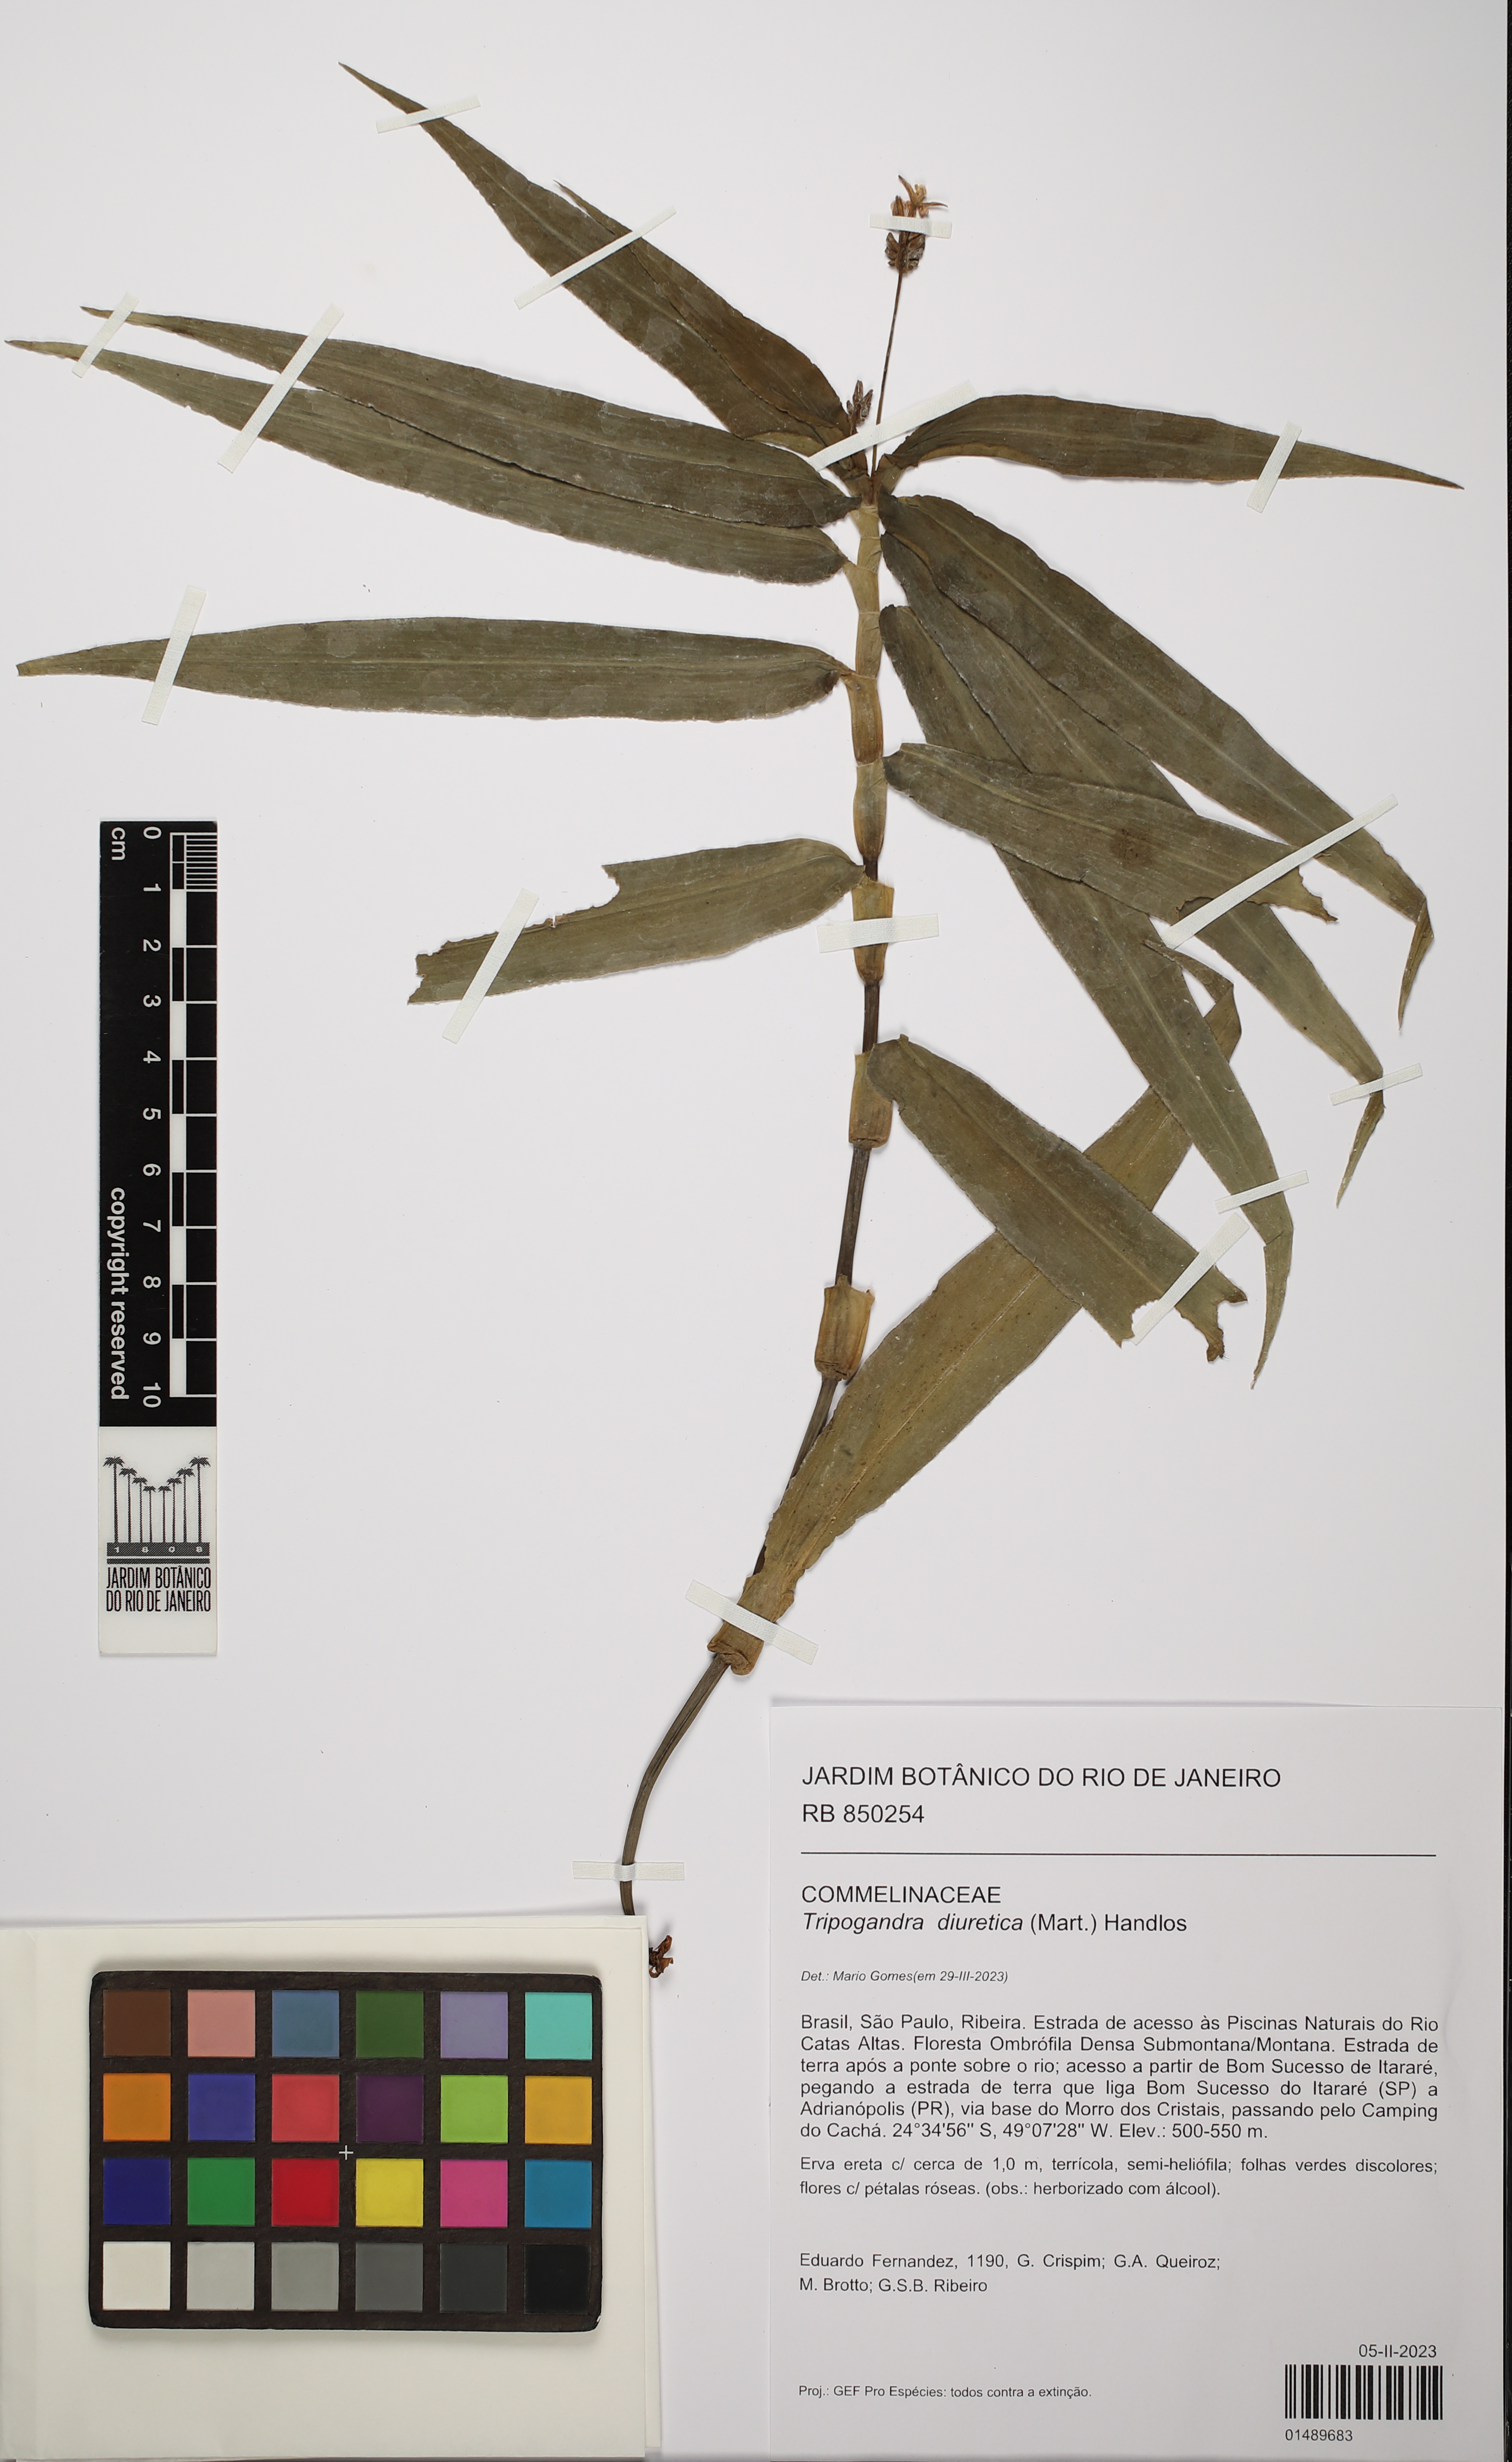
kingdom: Plantae
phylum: Tracheophyta
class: Liliopsida
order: Commelinales
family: Commelinaceae
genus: Callisia
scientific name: Callisia diuretica
